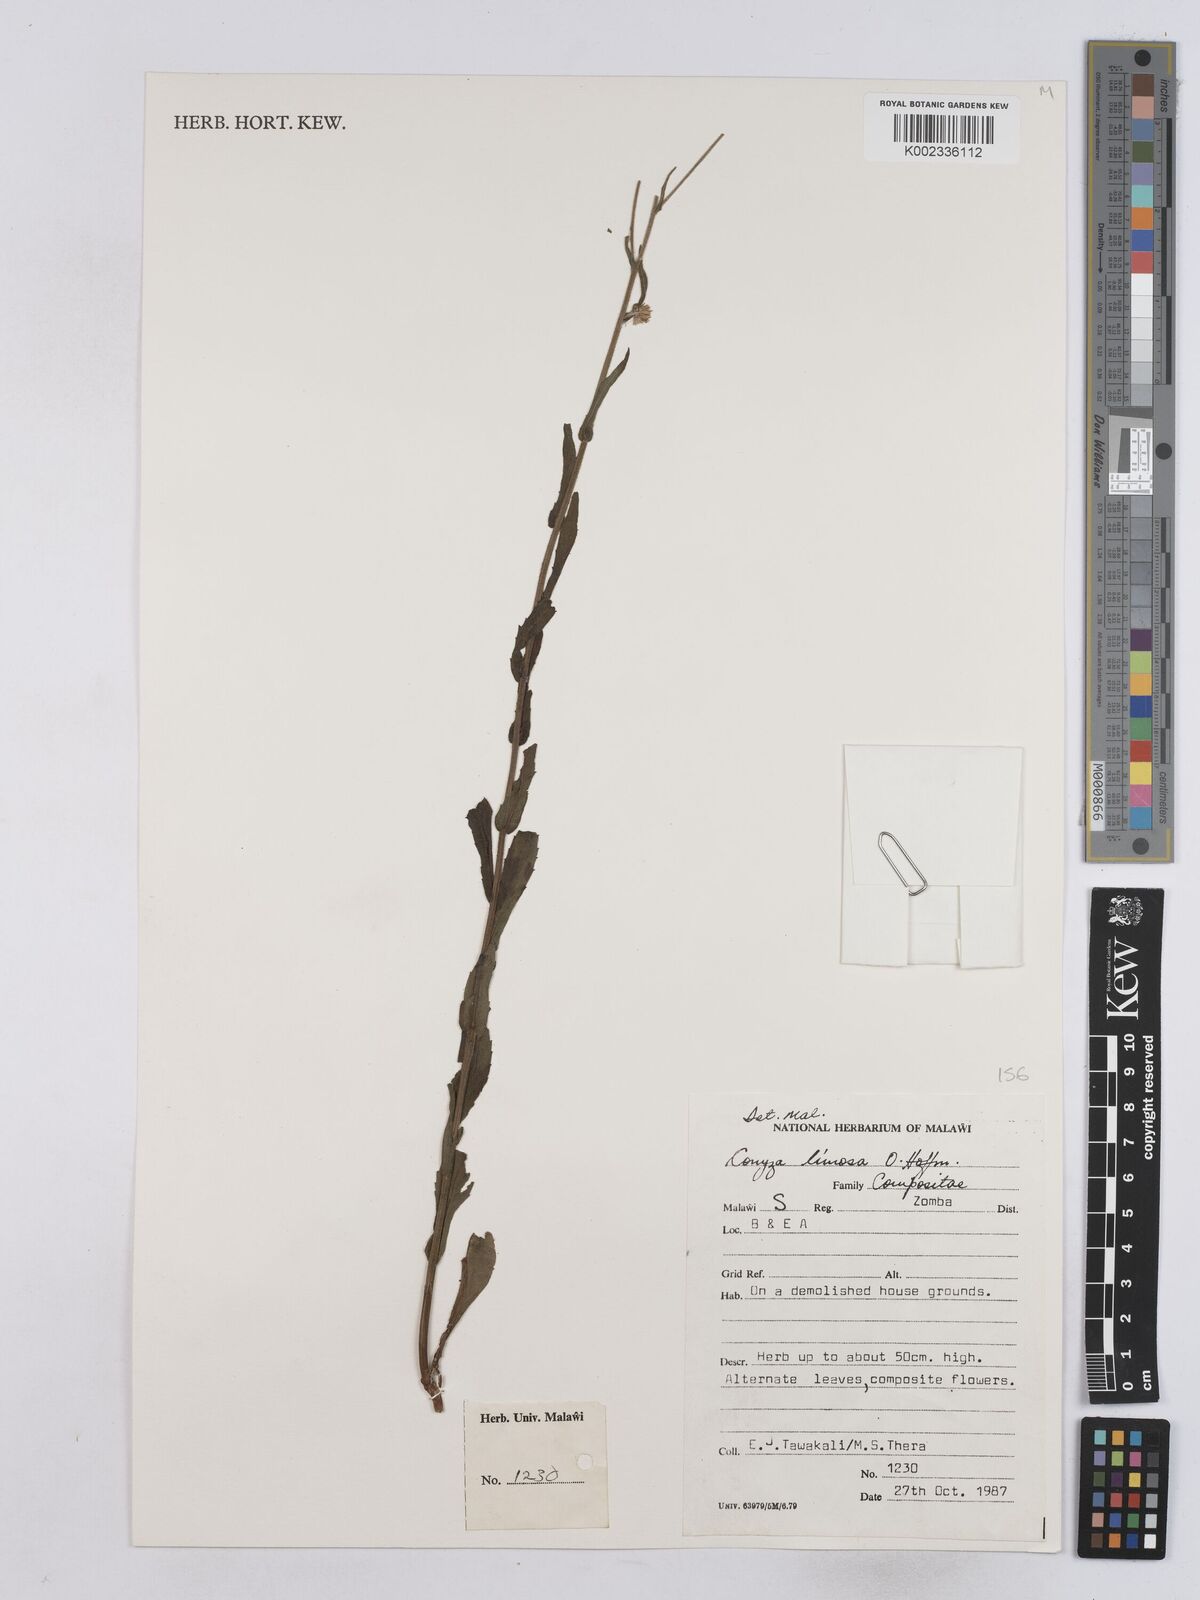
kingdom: Plantae
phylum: Tracheophyta
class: Magnoliopsida
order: Asterales
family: Asteraceae
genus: Conyza
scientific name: Conyza limosa
